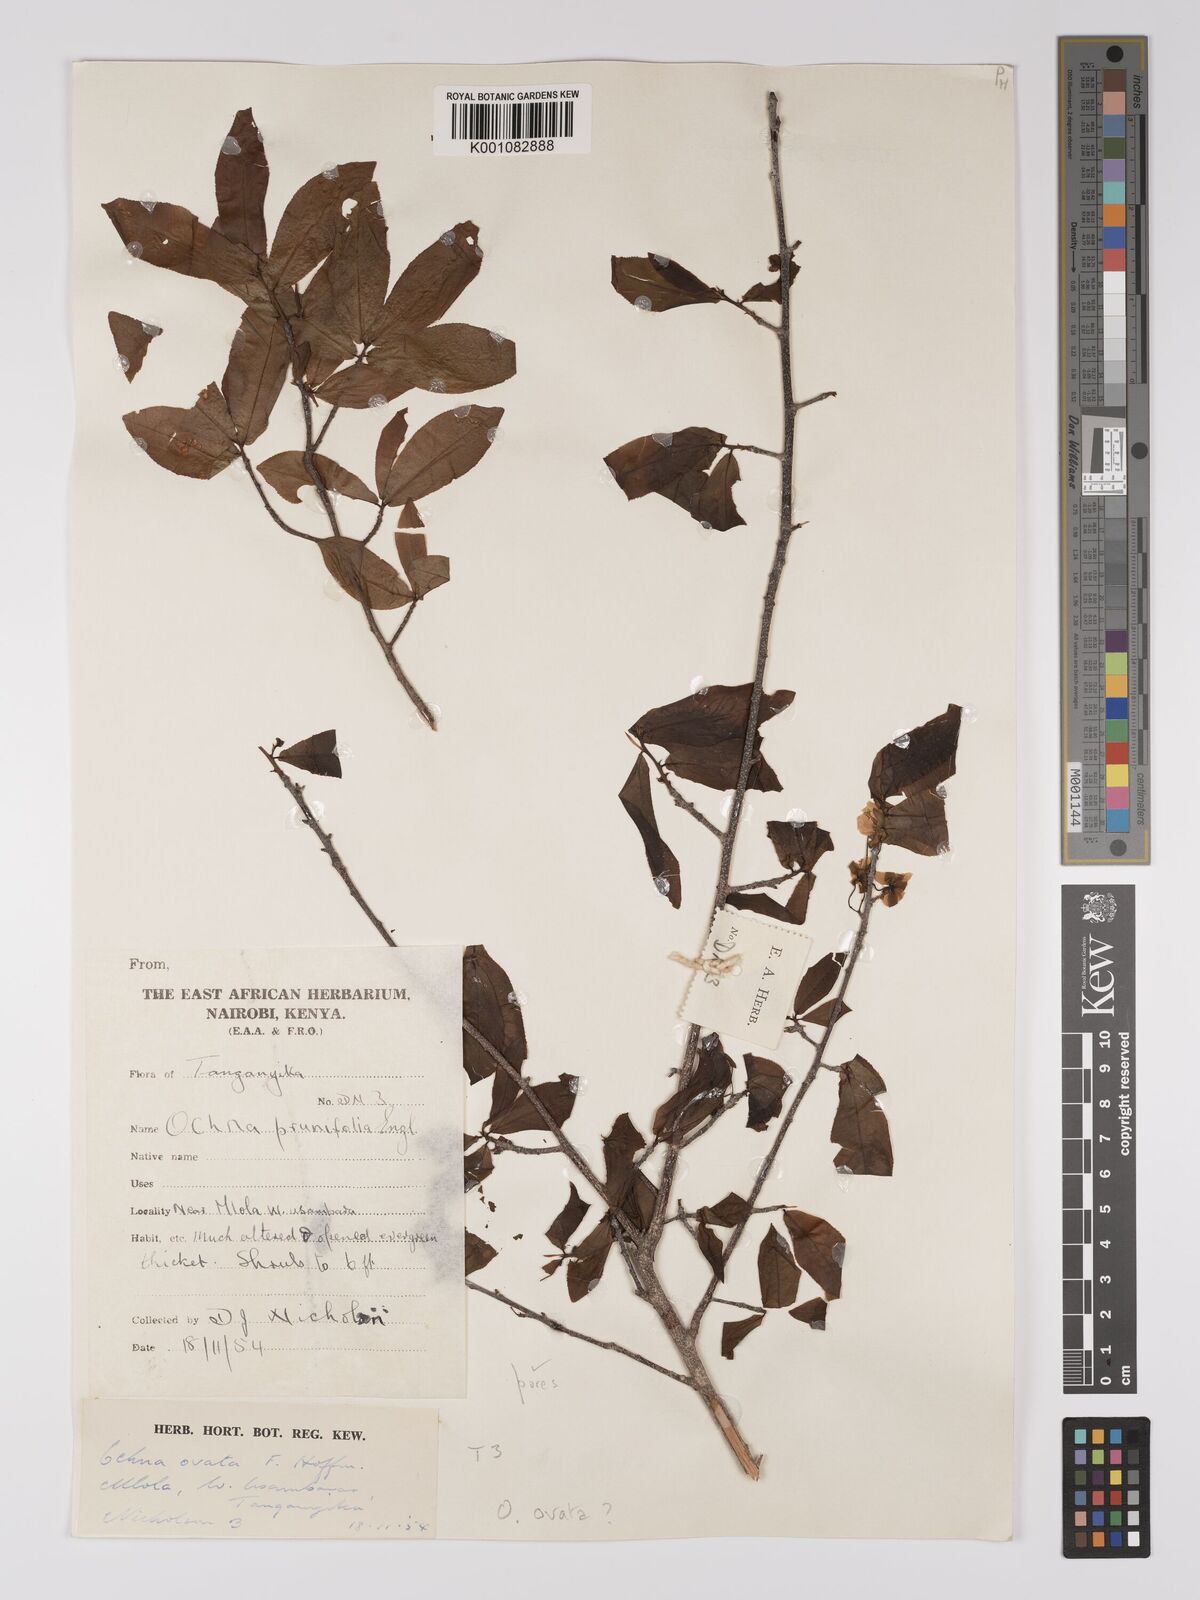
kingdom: Plantae
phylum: Tracheophyta
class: Magnoliopsida
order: Malpighiales
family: Ochnaceae
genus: Ochna
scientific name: Ochna ovata
